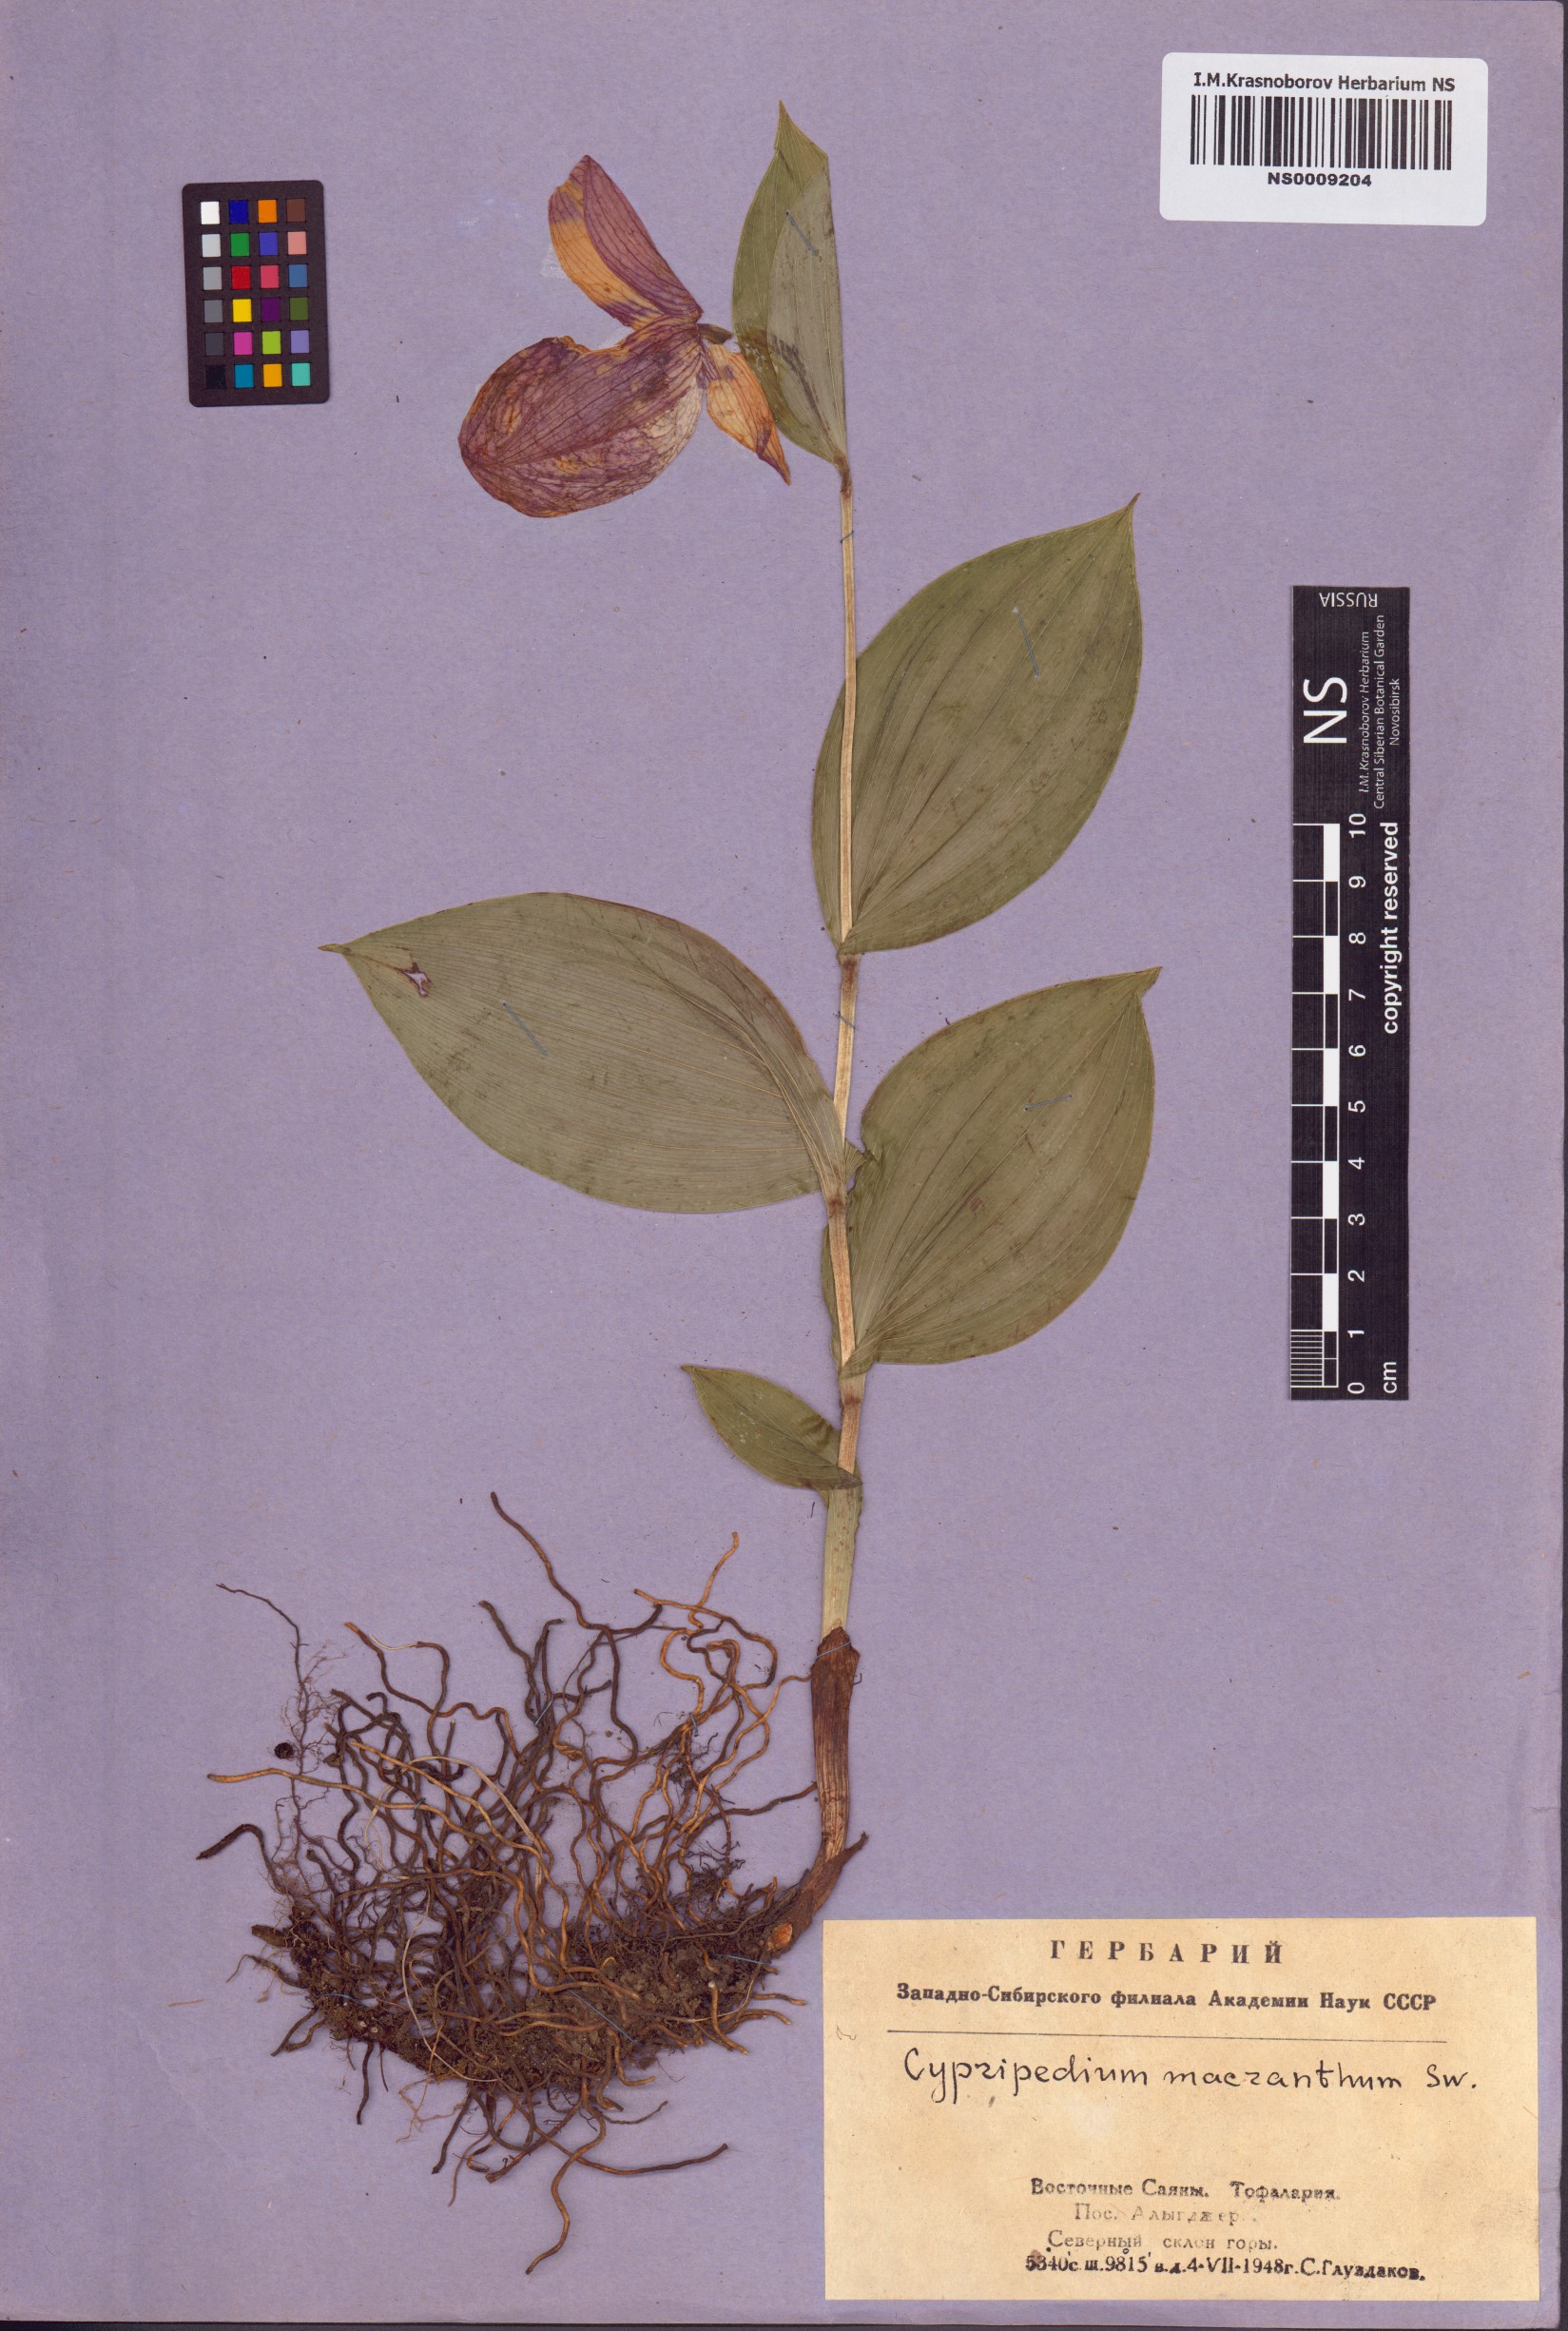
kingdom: Plantae
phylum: Tracheophyta
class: Liliopsida
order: Asparagales
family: Orchidaceae
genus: Cypripedium
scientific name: Cypripedium macranthos
